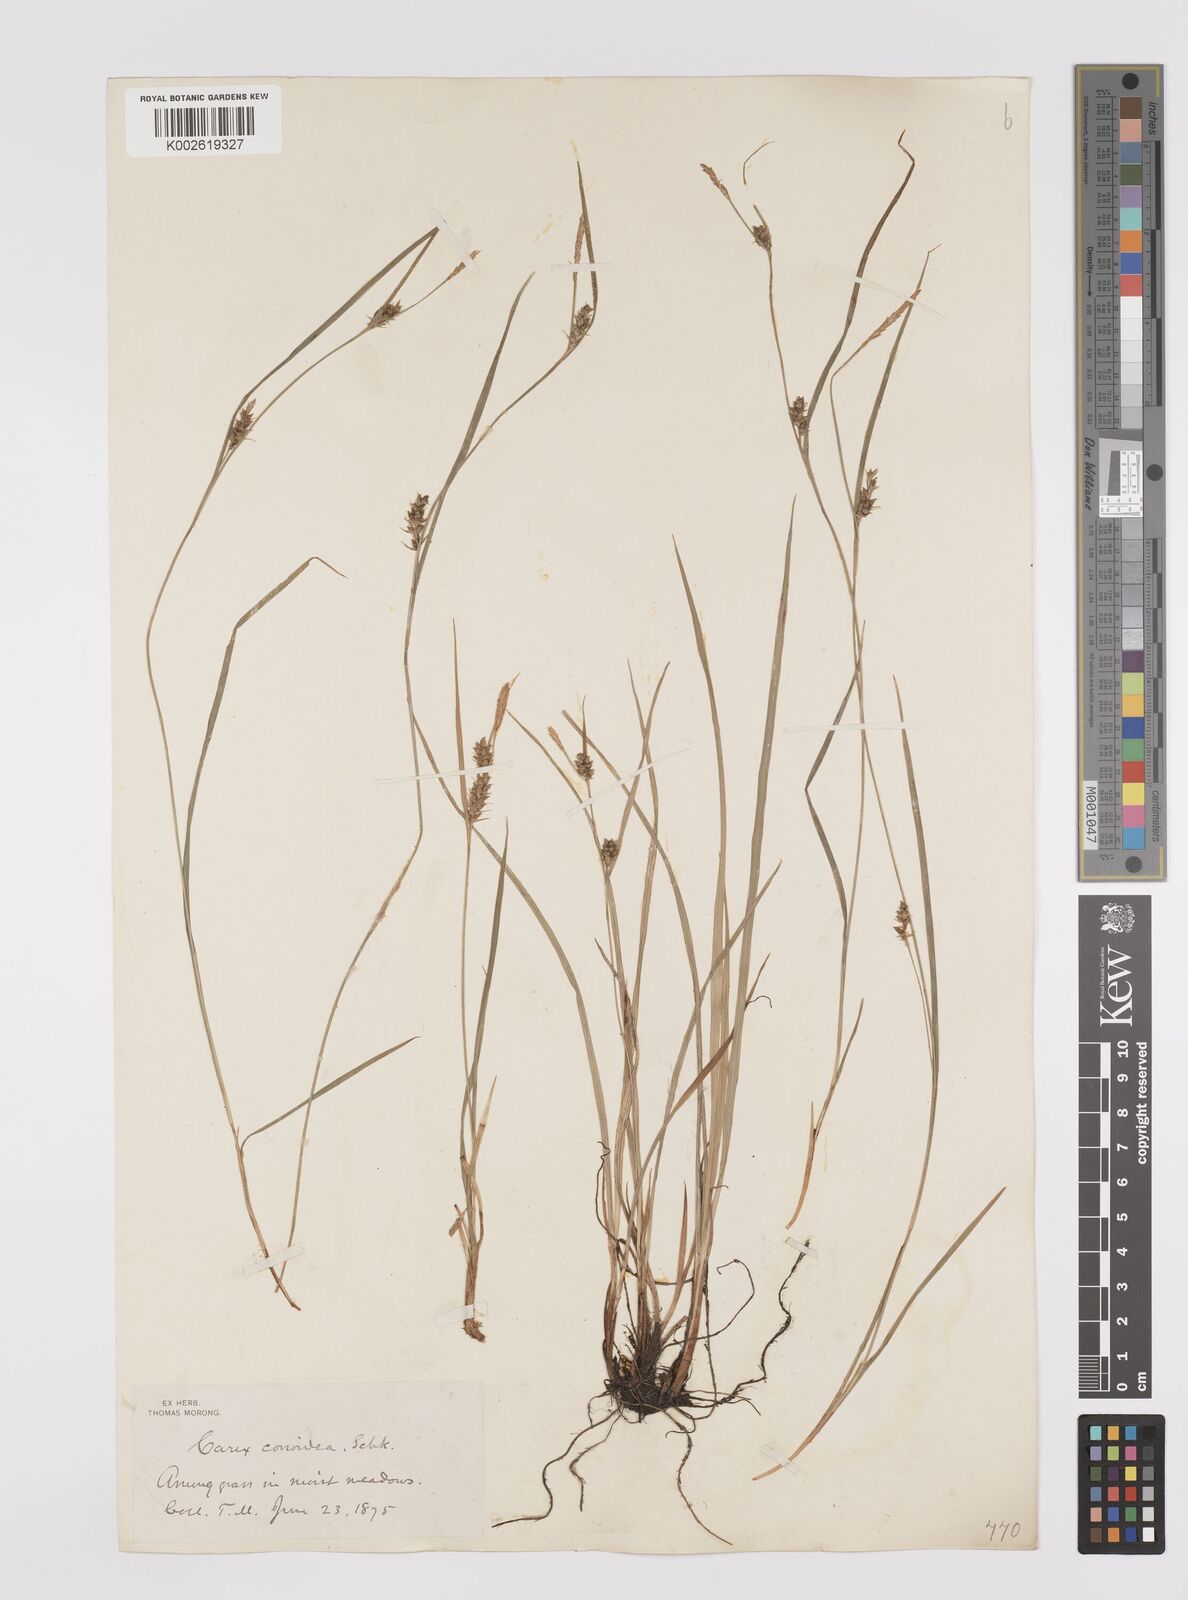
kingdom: Plantae
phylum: Tracheophyta
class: Liliopsida
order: Poales
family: Cyperaceae
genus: Carex
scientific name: Carex conoidea
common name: Cone shaped sedge
